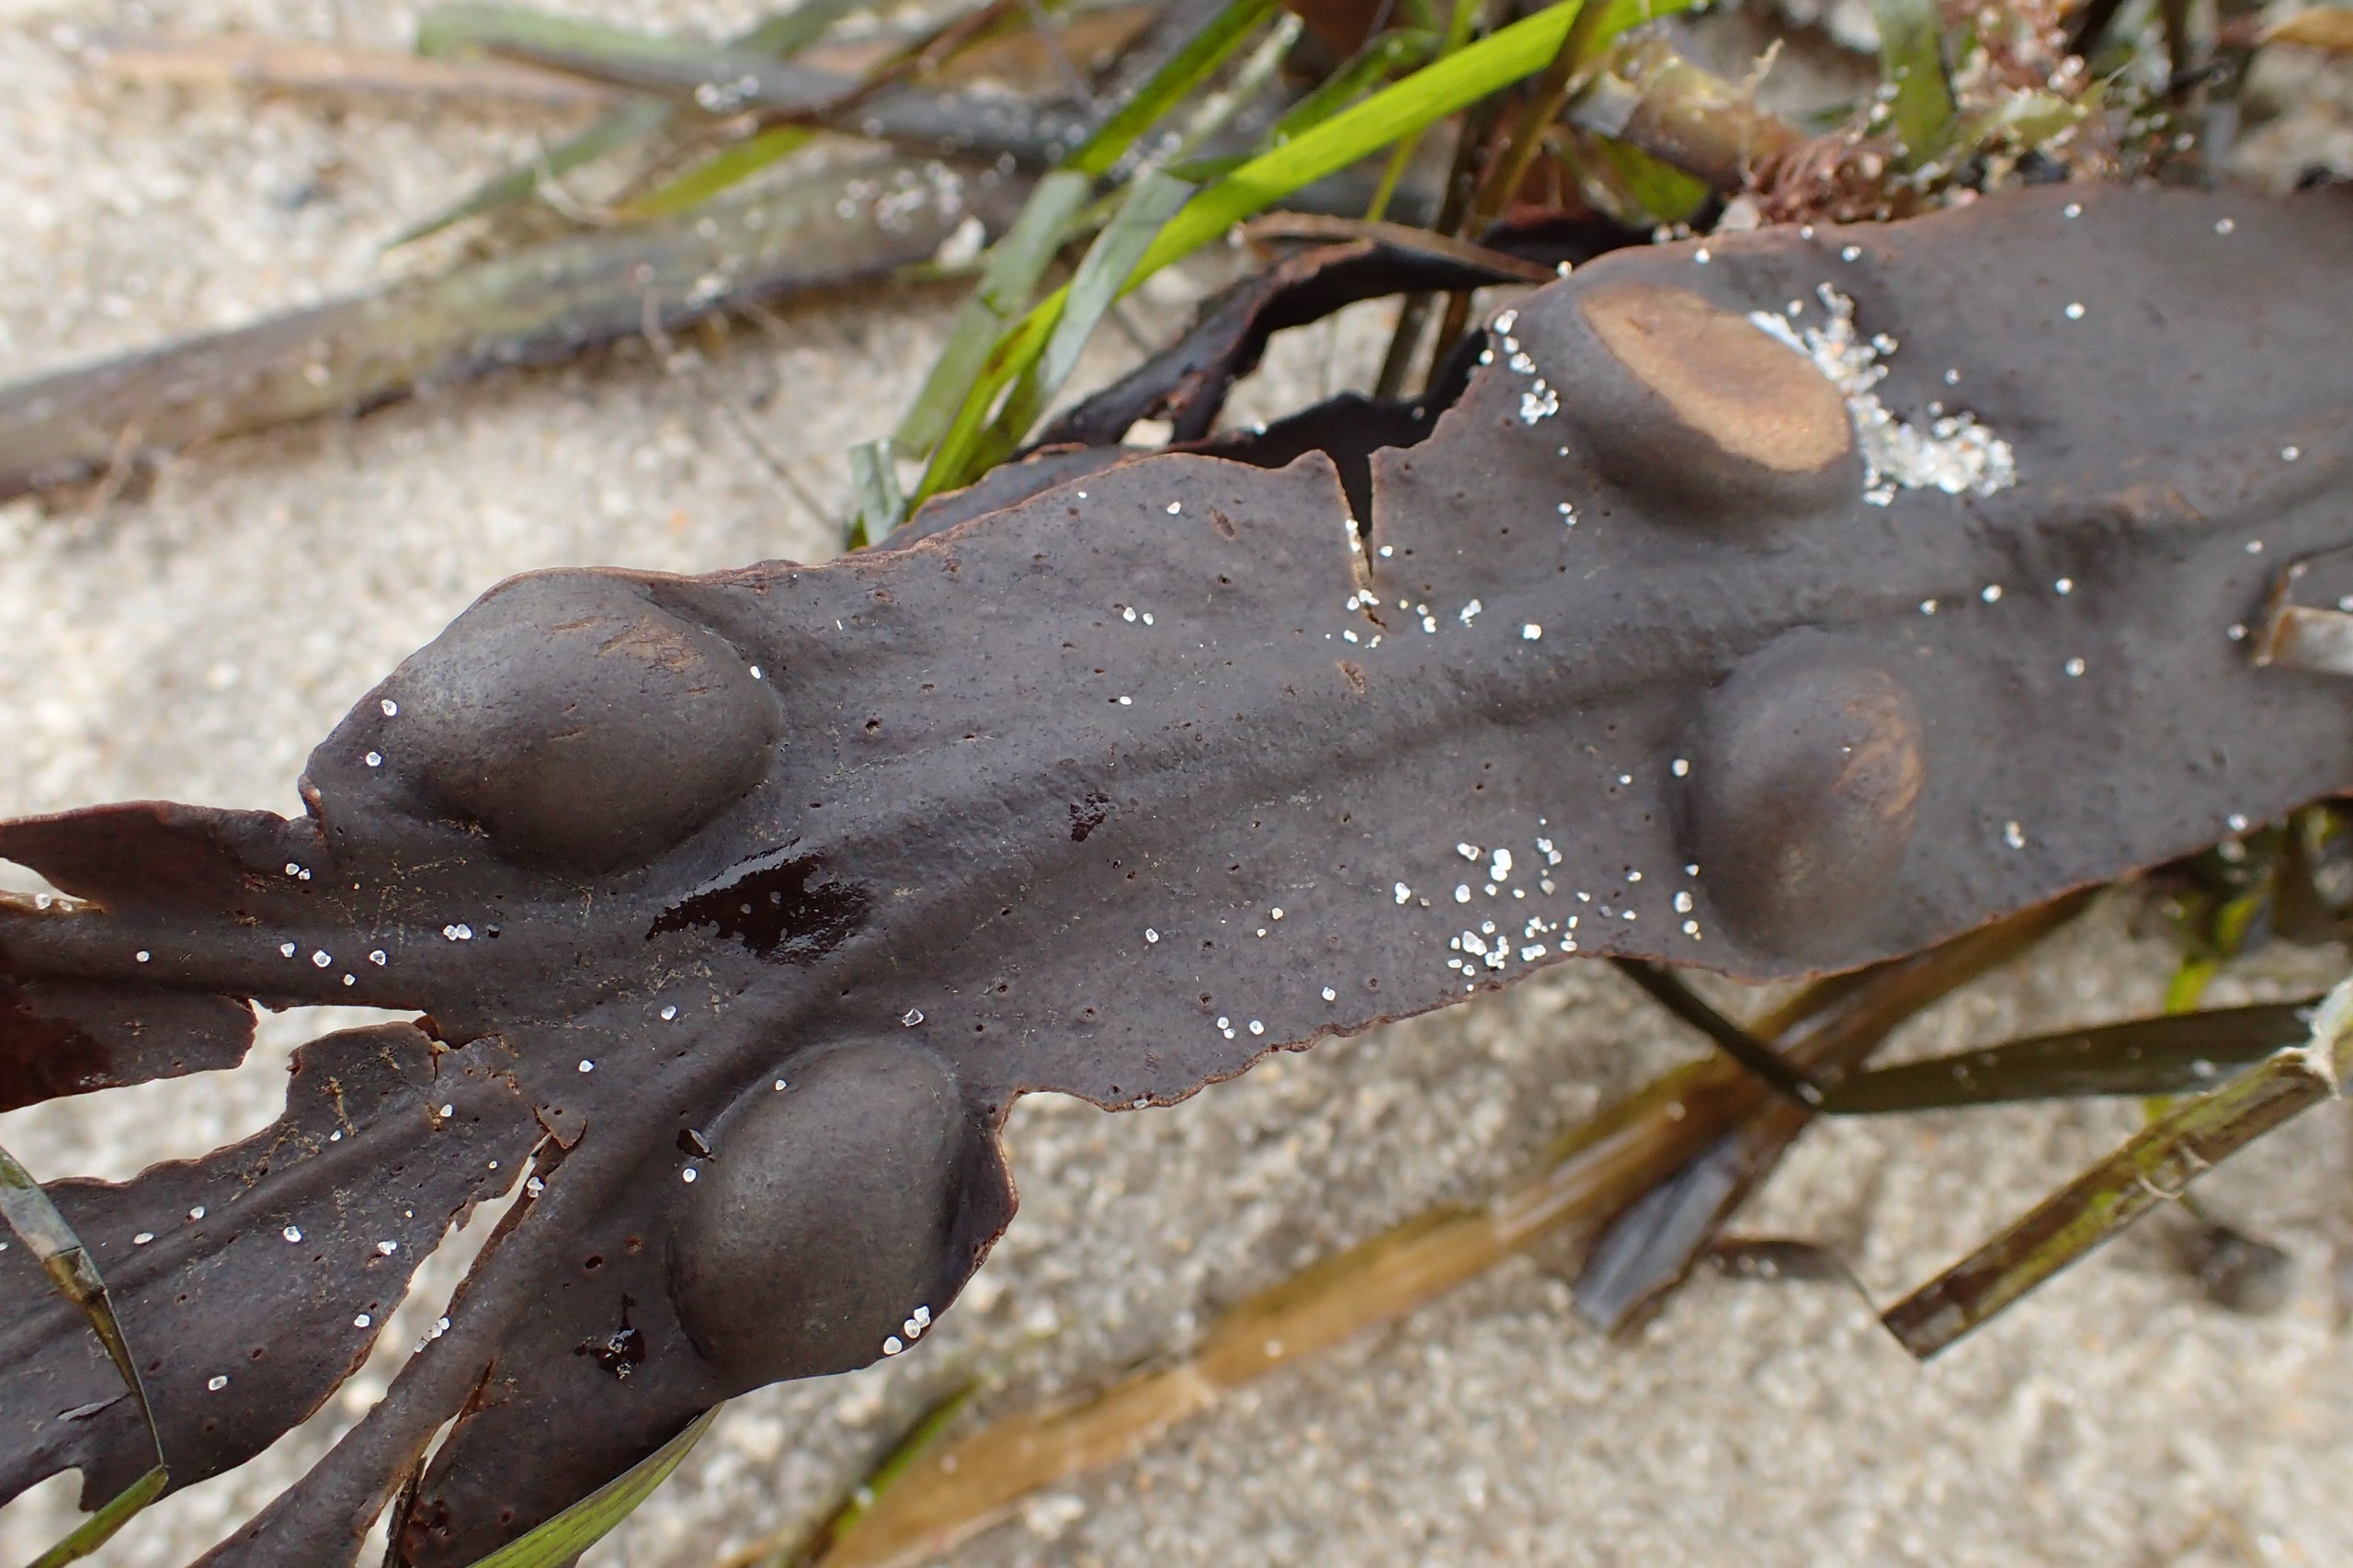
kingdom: Chromista
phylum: Ochrophyta
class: Phaeophyceae
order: Fucales
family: Fucaceae
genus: Fucus
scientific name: Fucus vesiculosus
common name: Blæretang
